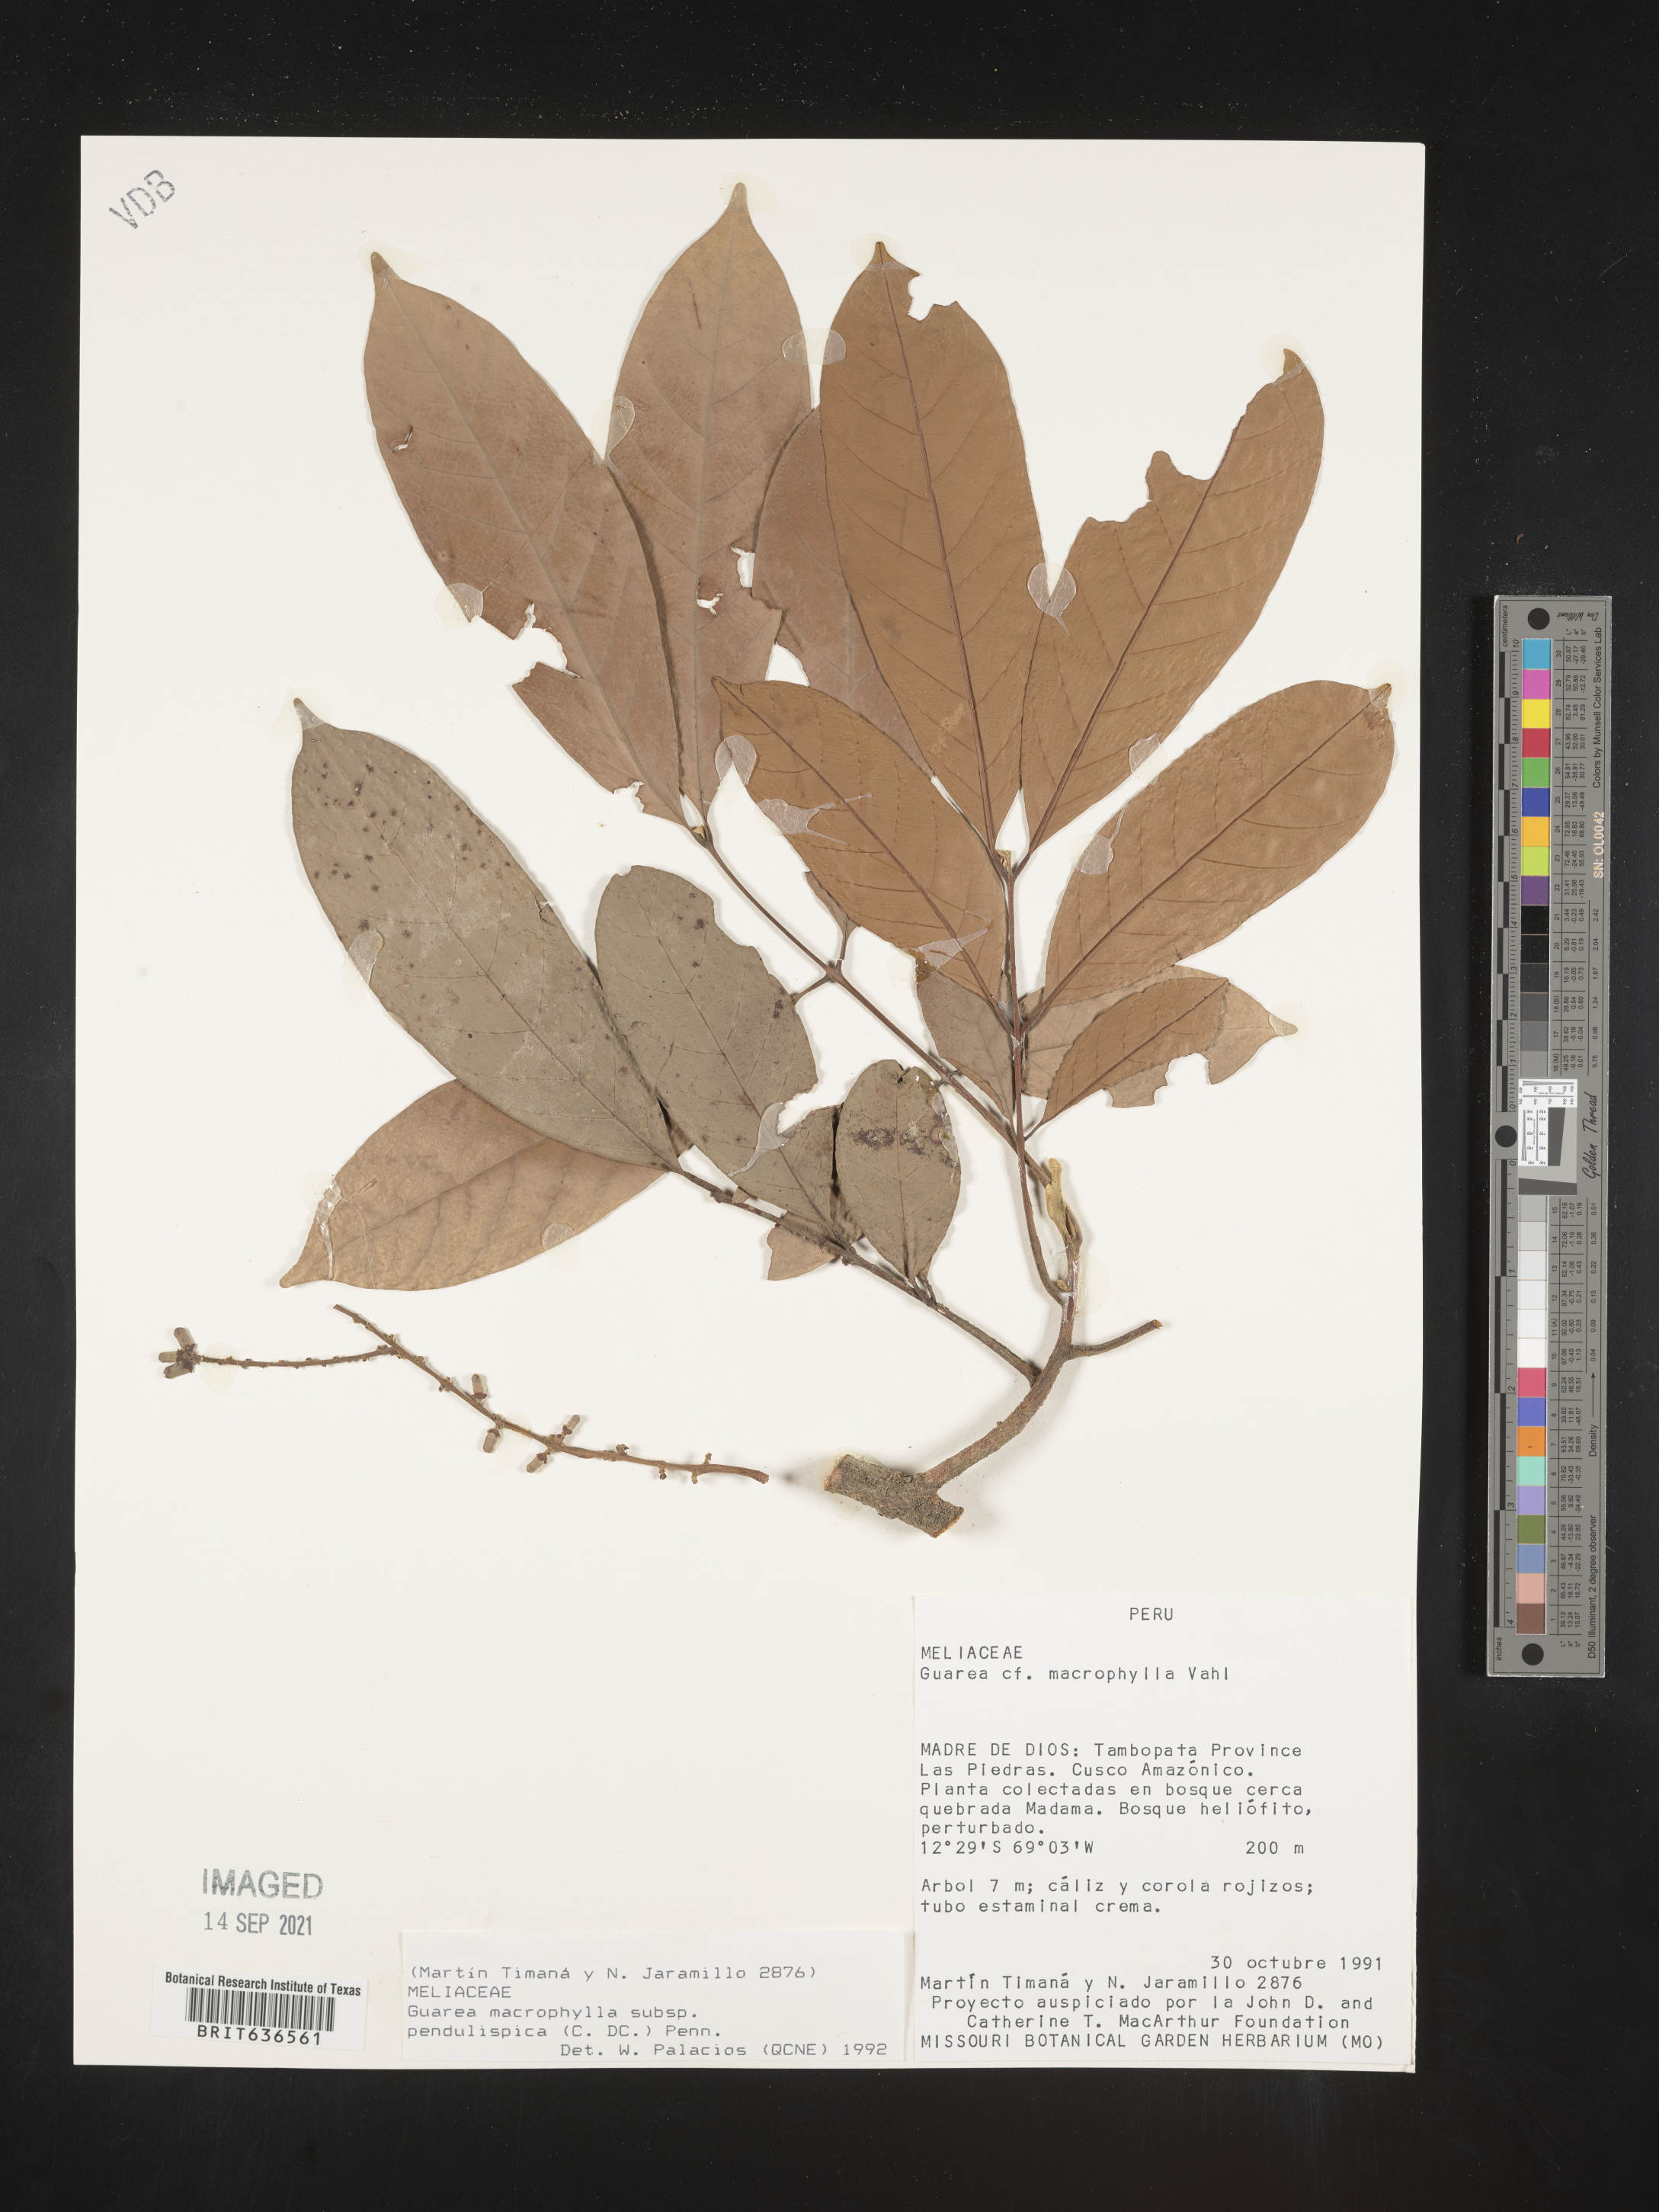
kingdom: Plantae
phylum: Tracheophyta
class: Magnoliopsida
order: Sapindales
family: Meliaceae
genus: Guarea
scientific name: Guarea
